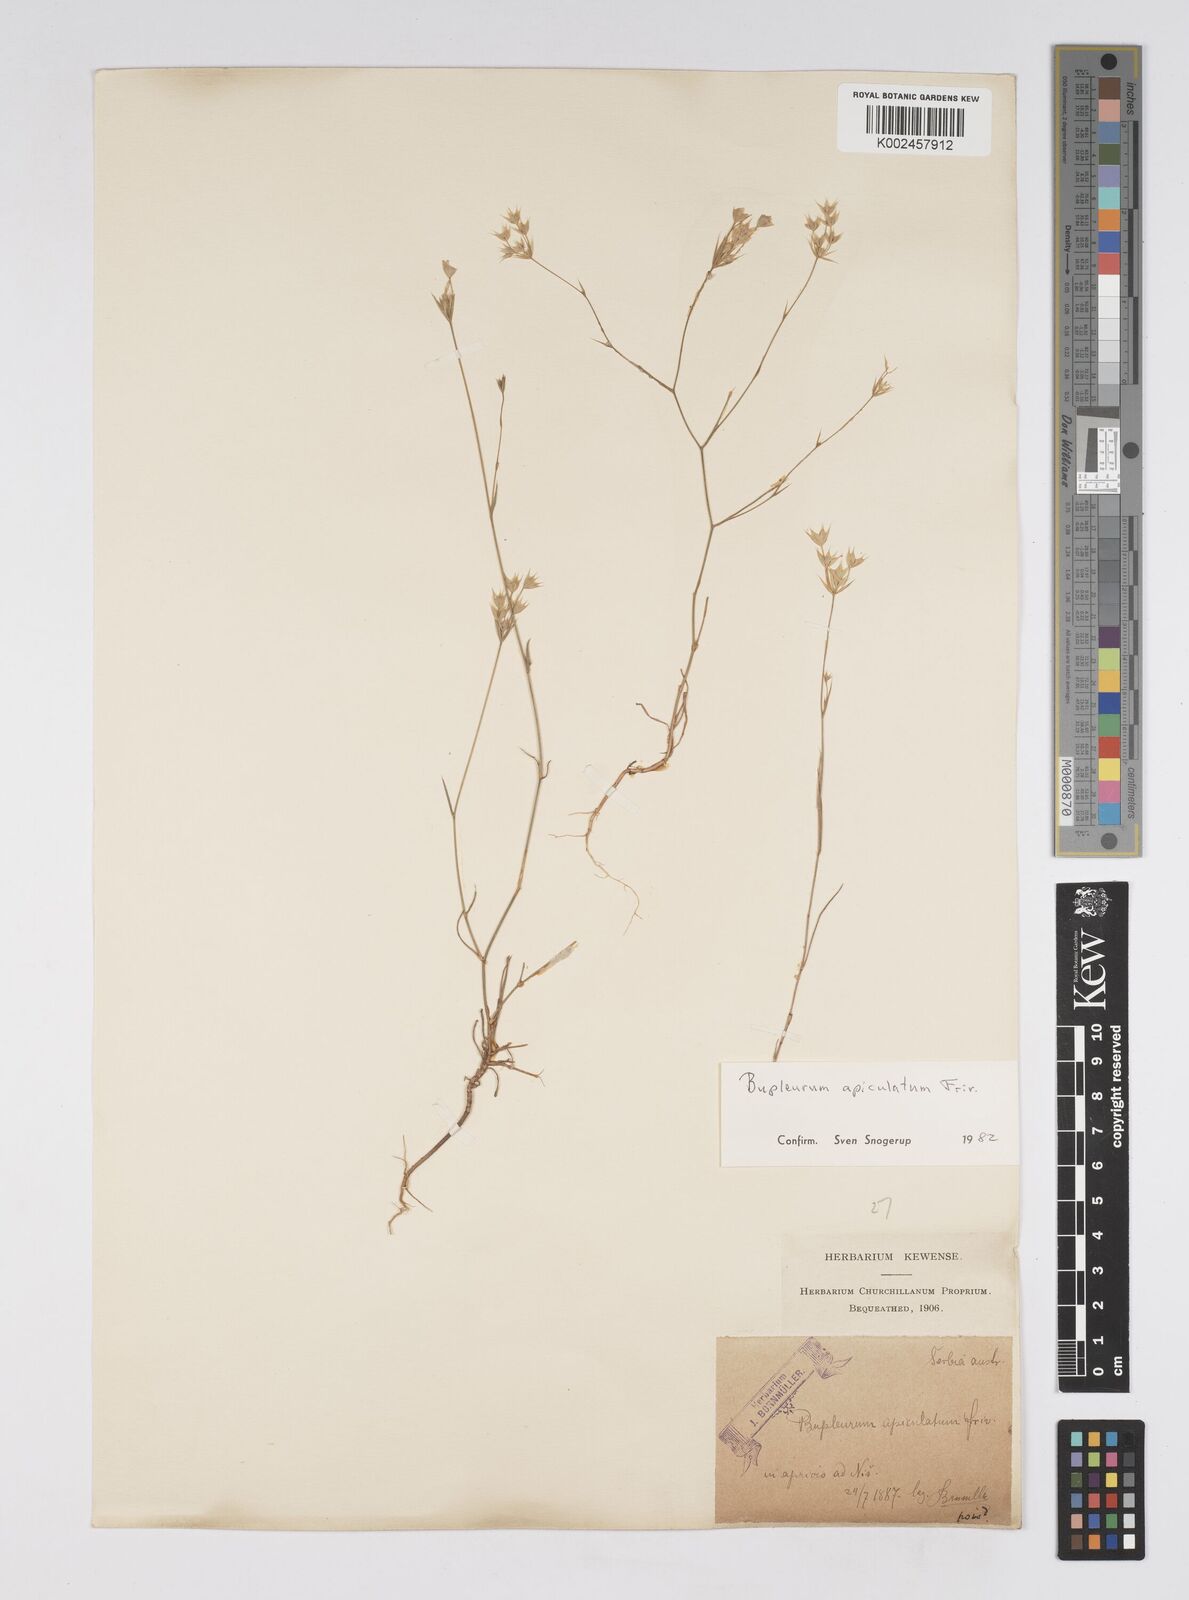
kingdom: Plantae
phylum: Tracheophyta
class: Magnoliopsida
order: Apiales
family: Apiaceae
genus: Bupleurum
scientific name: Bupleurum apiculatum
